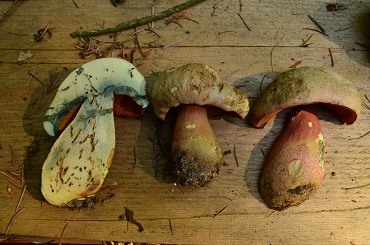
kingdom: Fungi
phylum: Basidiomycota
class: Agaricomycetes
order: Boletales
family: Boletaceae
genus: Rubroboletus
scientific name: Rubroboletus legaliae
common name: djævle-rørhat
